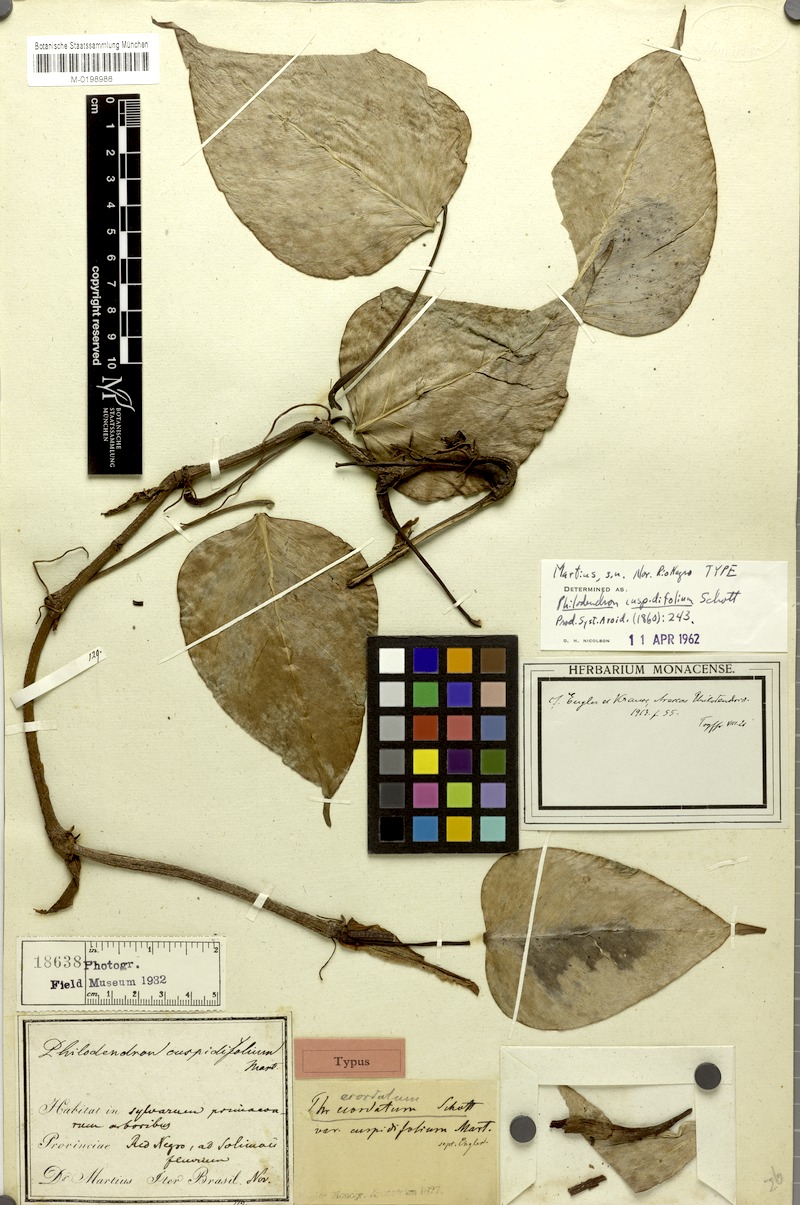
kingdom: Plantae
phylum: Tracheophyta
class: Liliopsida
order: Alismatales
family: Araceae
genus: Philodendron
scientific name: Philodendron ecordatum
